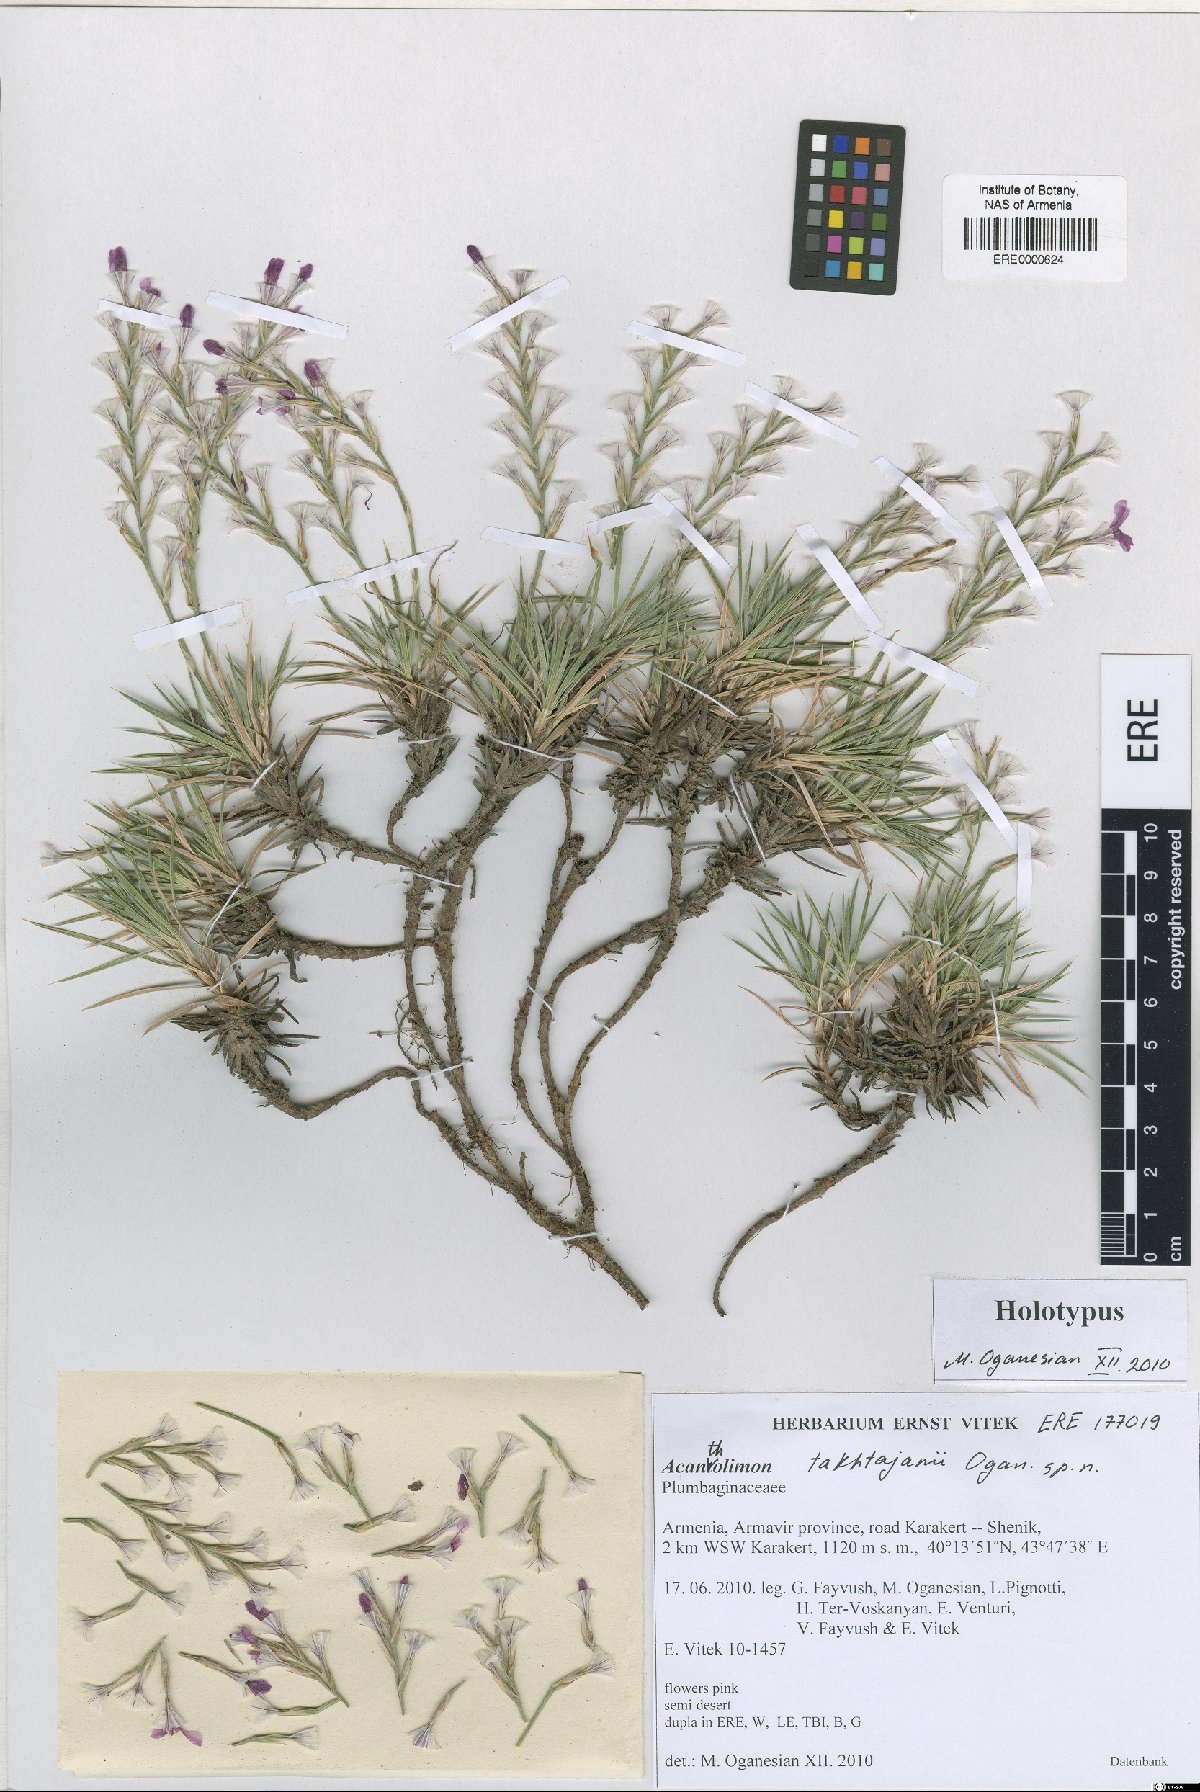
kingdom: Plantae
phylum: Tracheophyta
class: Magnoliopsida
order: Caryophyllales
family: Plumbaginaceae
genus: Acantholimon
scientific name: Acantholimon takhtajanii
